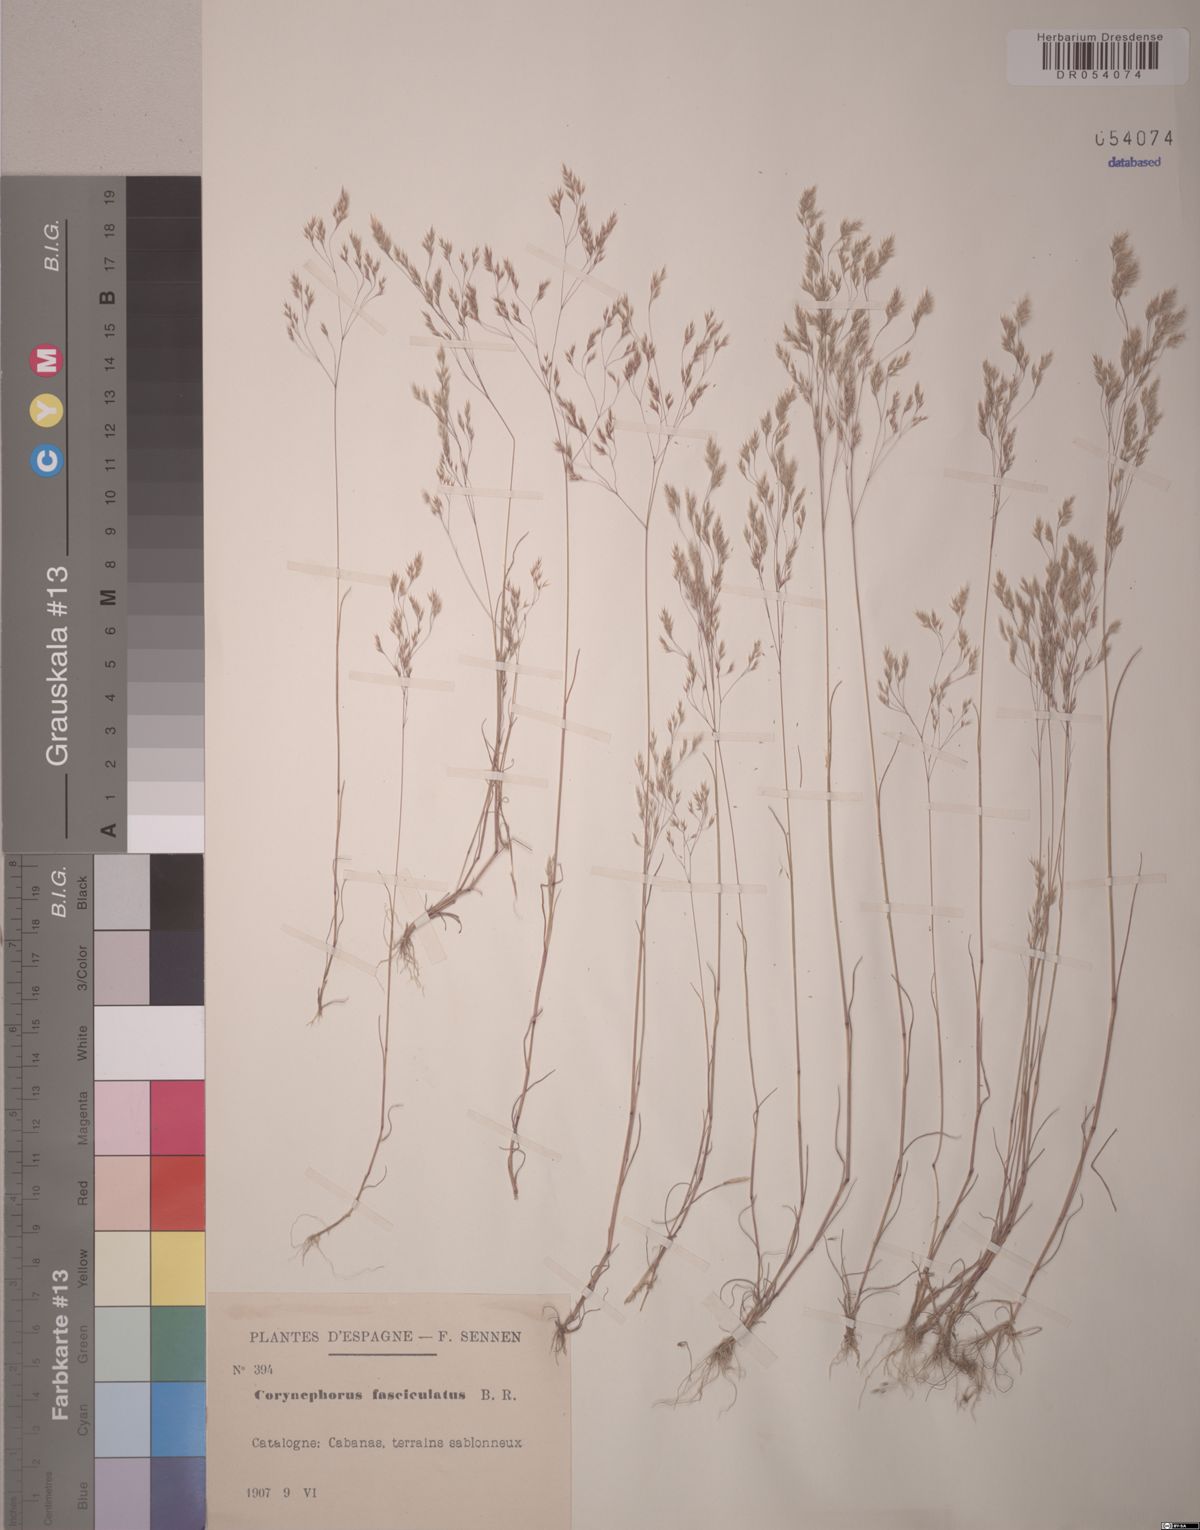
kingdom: Plantae
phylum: Tracheophyta
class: Liliopsida
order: Poales
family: Poaceae
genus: Corynephorus
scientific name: Corynephorus fasciculatus
